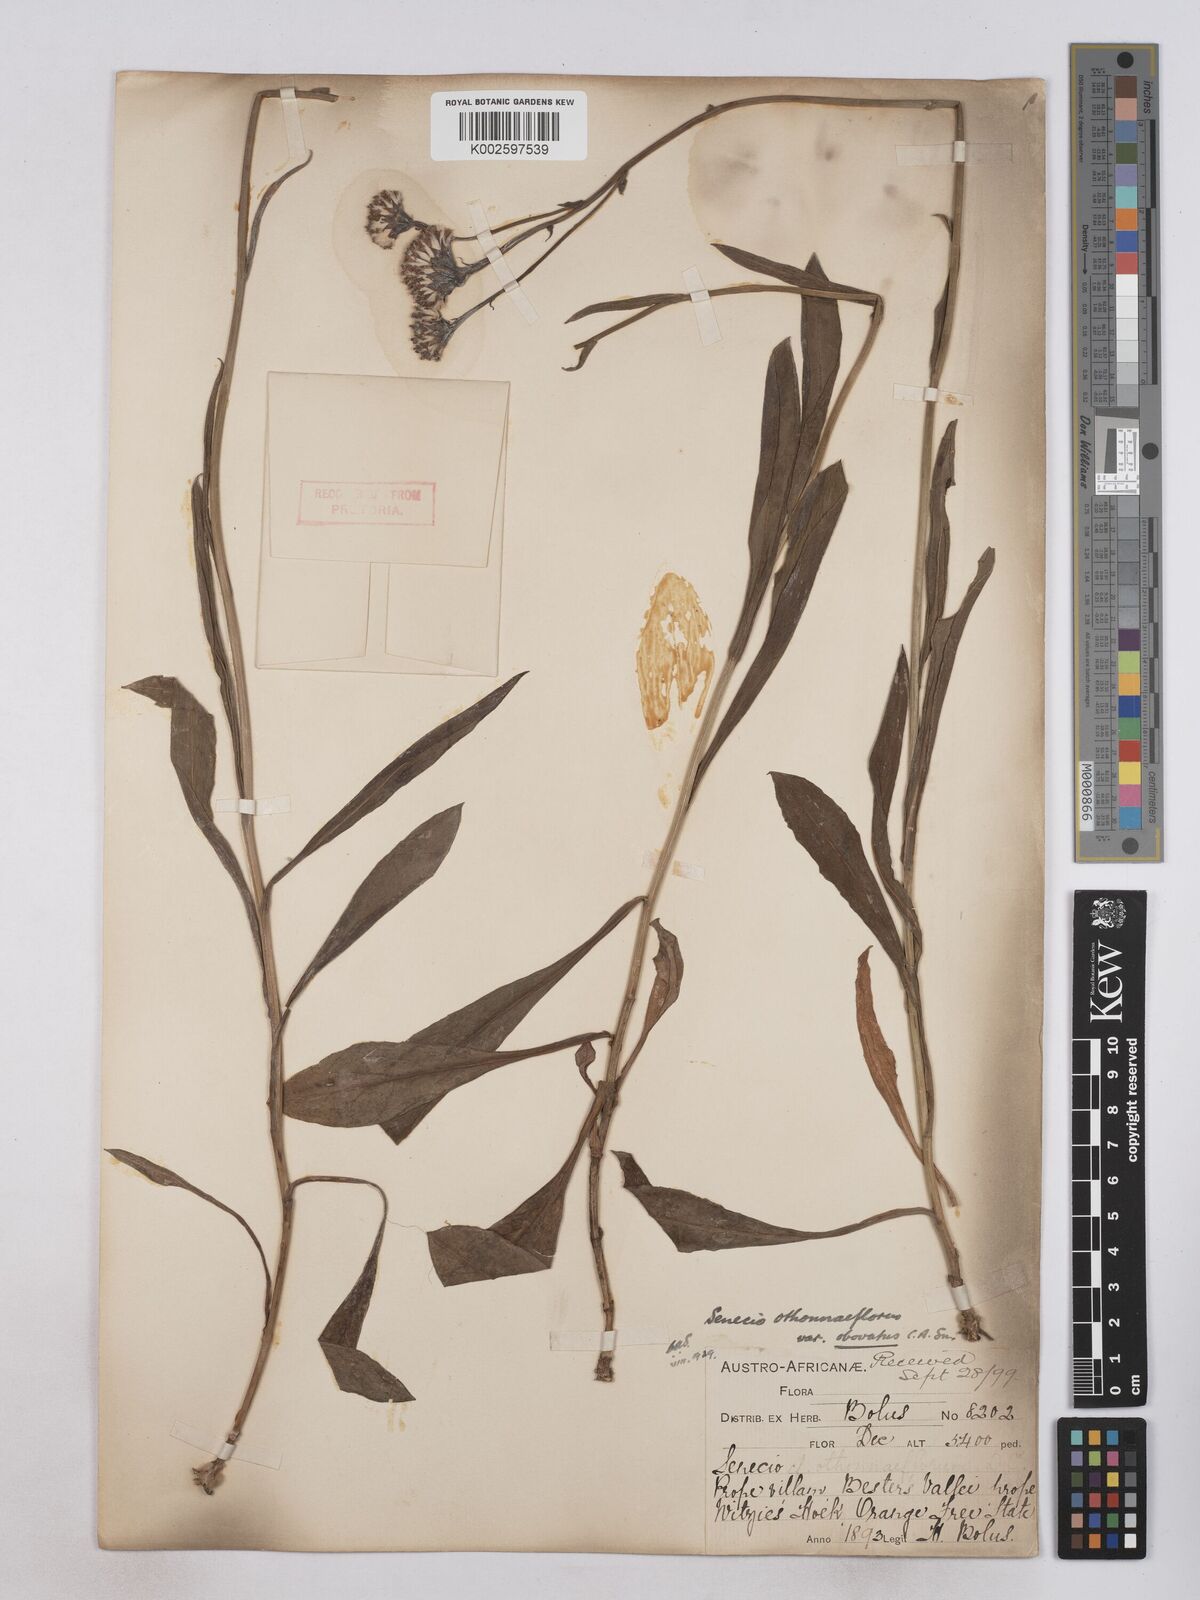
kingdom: Plantae
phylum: Tracheophyta
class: Magnoliopsida
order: Asterales
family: Asteraceae
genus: Senecio
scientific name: Senecio othonniflorus
